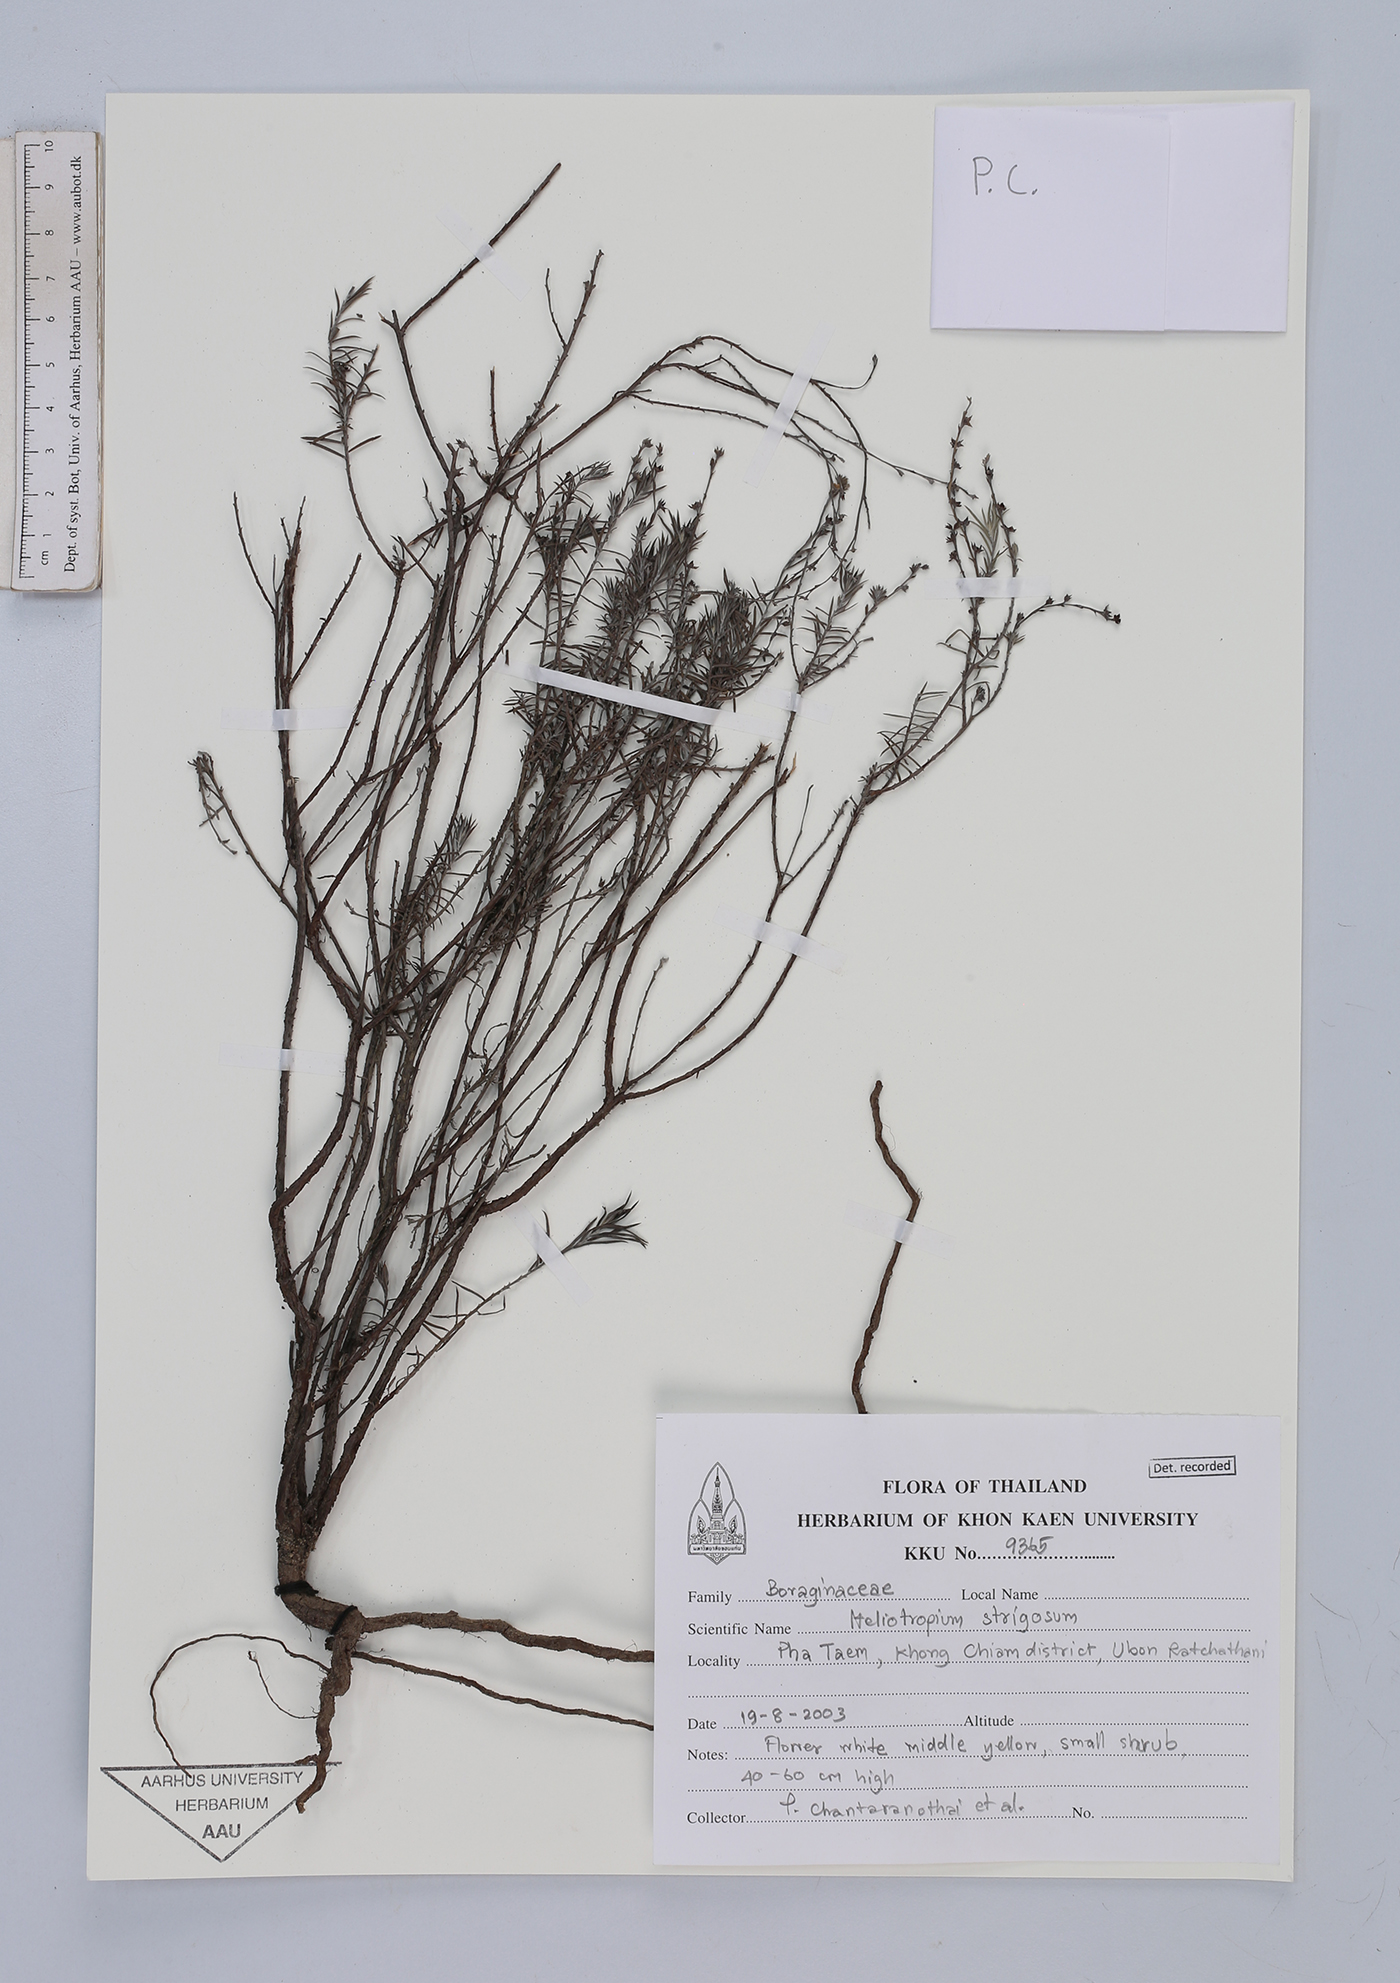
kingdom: Plantae
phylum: Tracheophyta
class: Magnoliopsida
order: Boraginales
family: Heliotropiaceae
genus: Euploca
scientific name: Euploca strigosa
